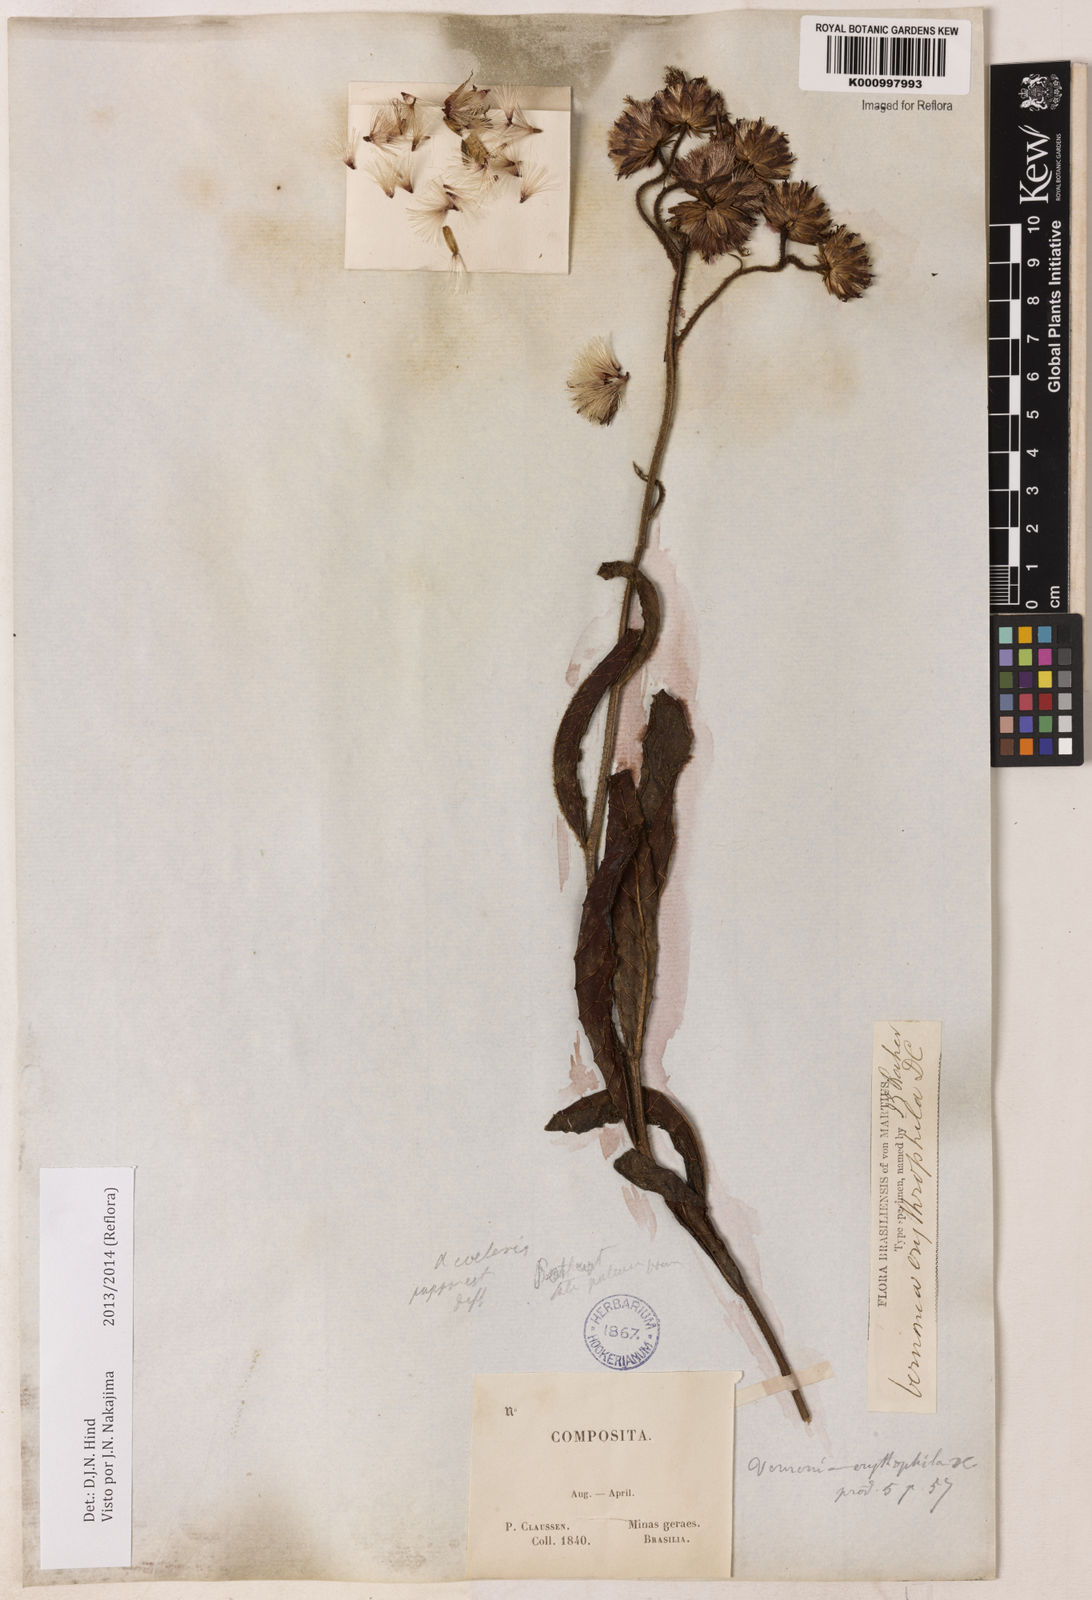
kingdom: Plantae
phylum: Tracheophyta
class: Magnoliopsida
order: Asterales
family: Asteraceae
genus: Lessingianthus
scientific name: Lessingianthus erythrophilus
